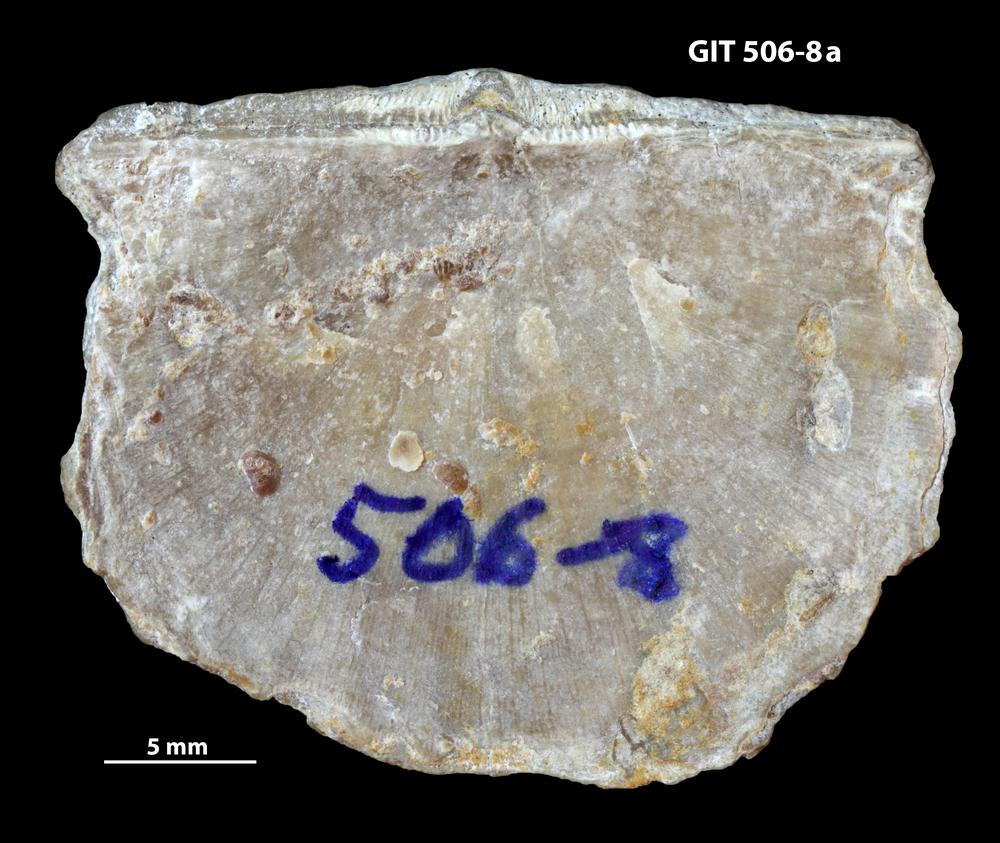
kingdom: Animalia
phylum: Brachiopoda
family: Stropheodontidae
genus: Strophodonta
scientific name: Strophodonta Brachyprion semiglobosa
